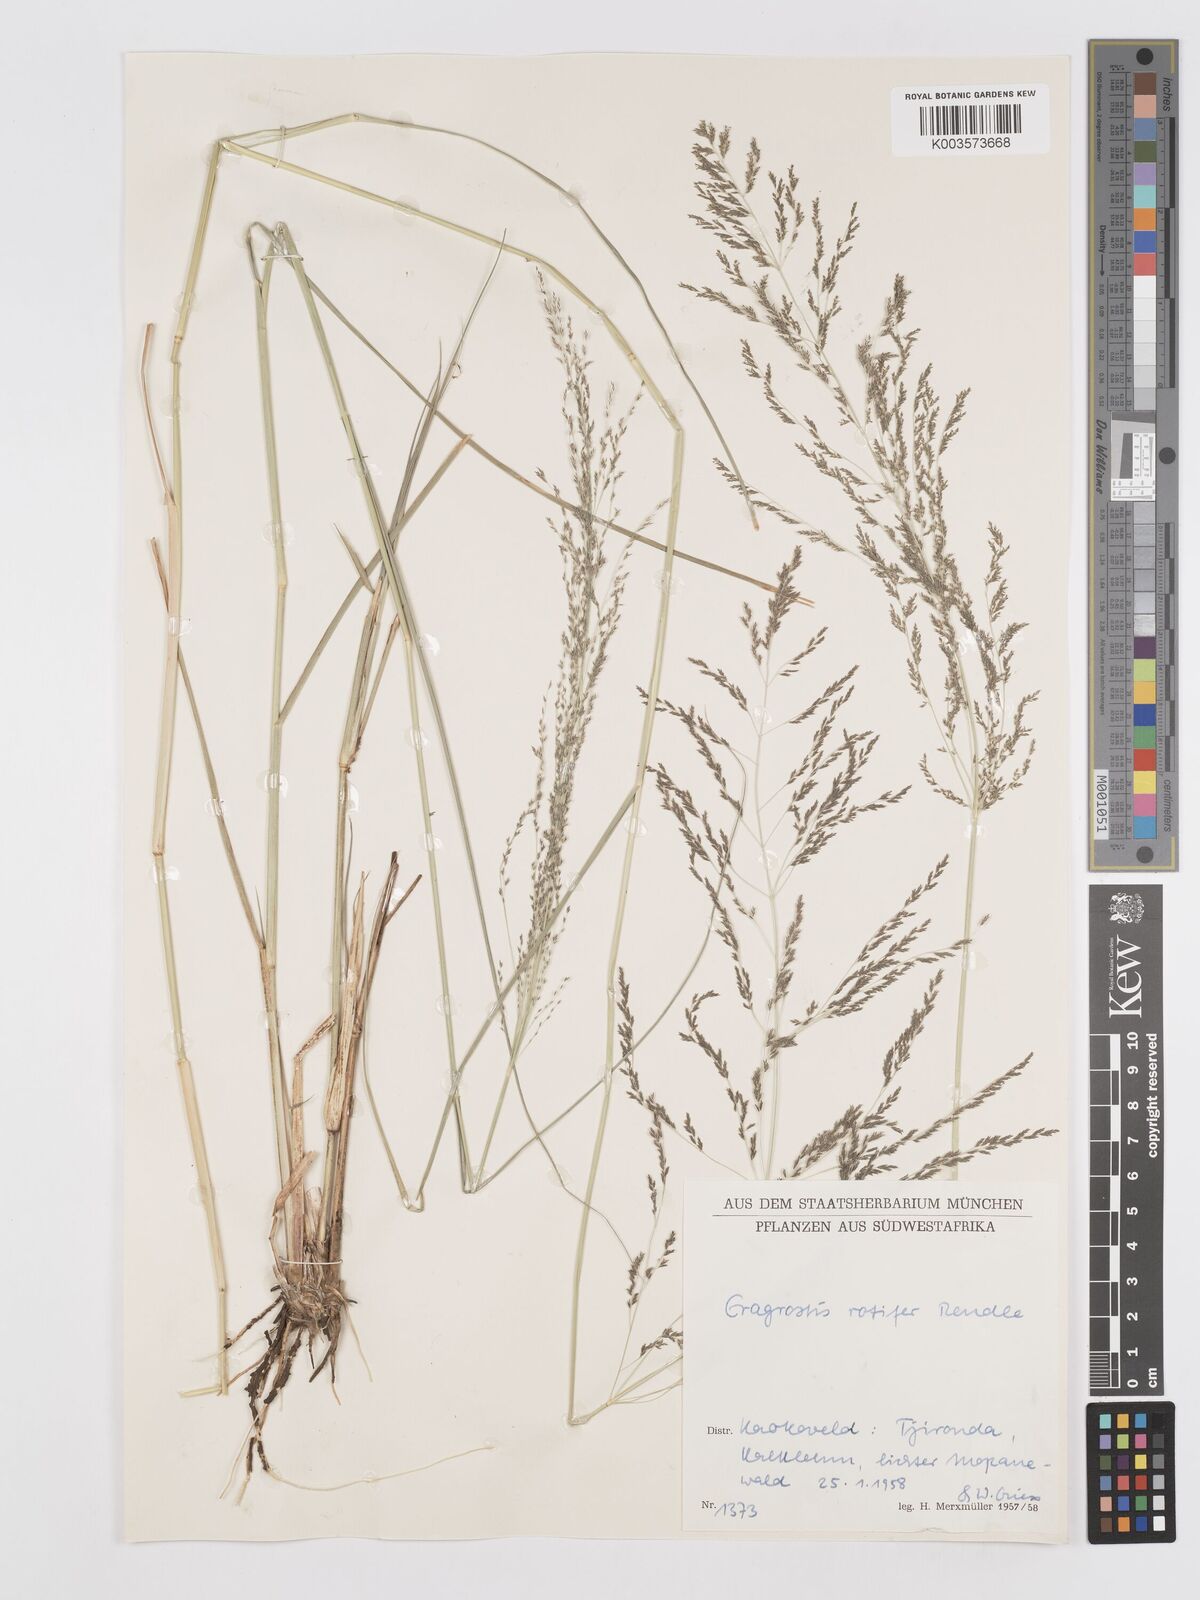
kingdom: Plantae
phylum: Tracheophyta
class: Liliopsida
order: Poales
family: Poaceae
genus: Eragrostis
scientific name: Eragrostis rotifer
